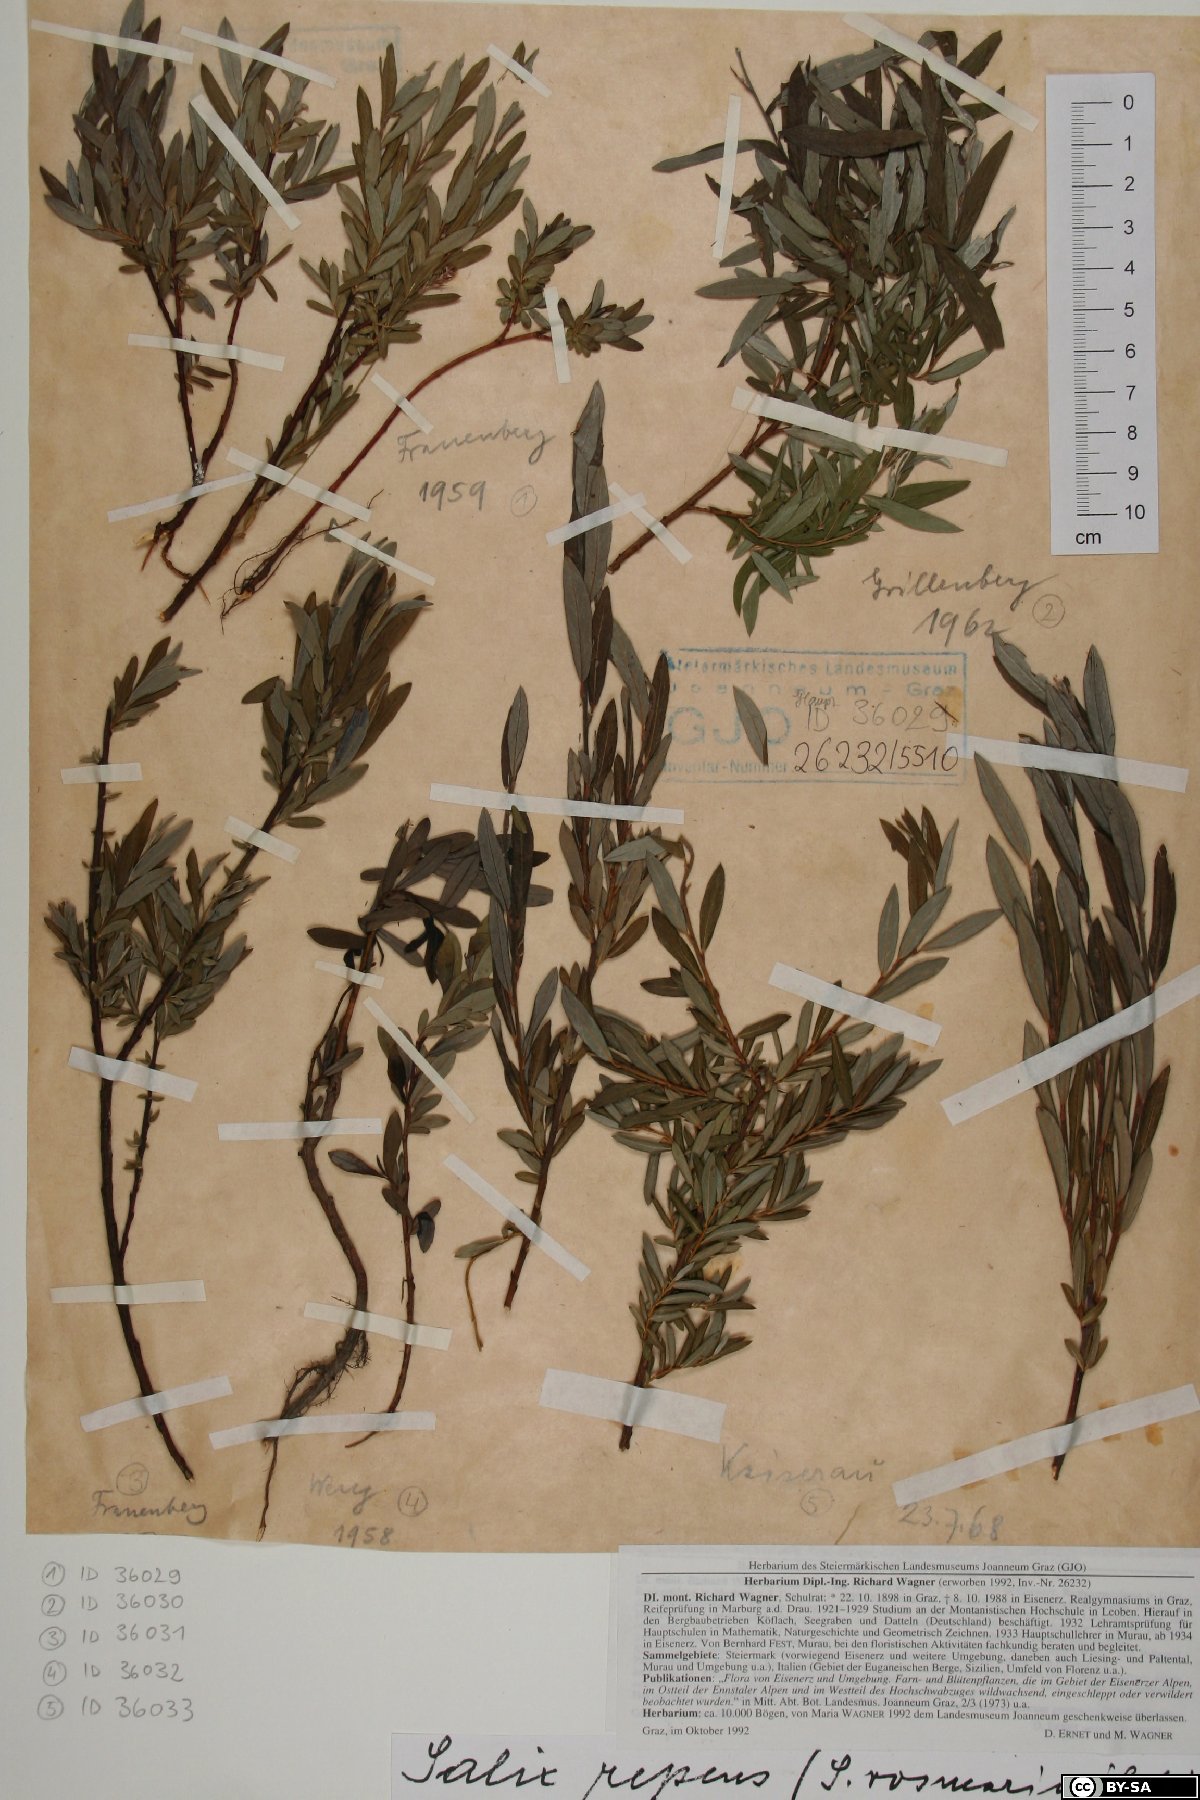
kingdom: Plantae
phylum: Tracheophyta
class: Magnoliopsida
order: Malpighiales
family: Salicaceae
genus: Salix
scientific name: Salix repens
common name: Creeping willow
